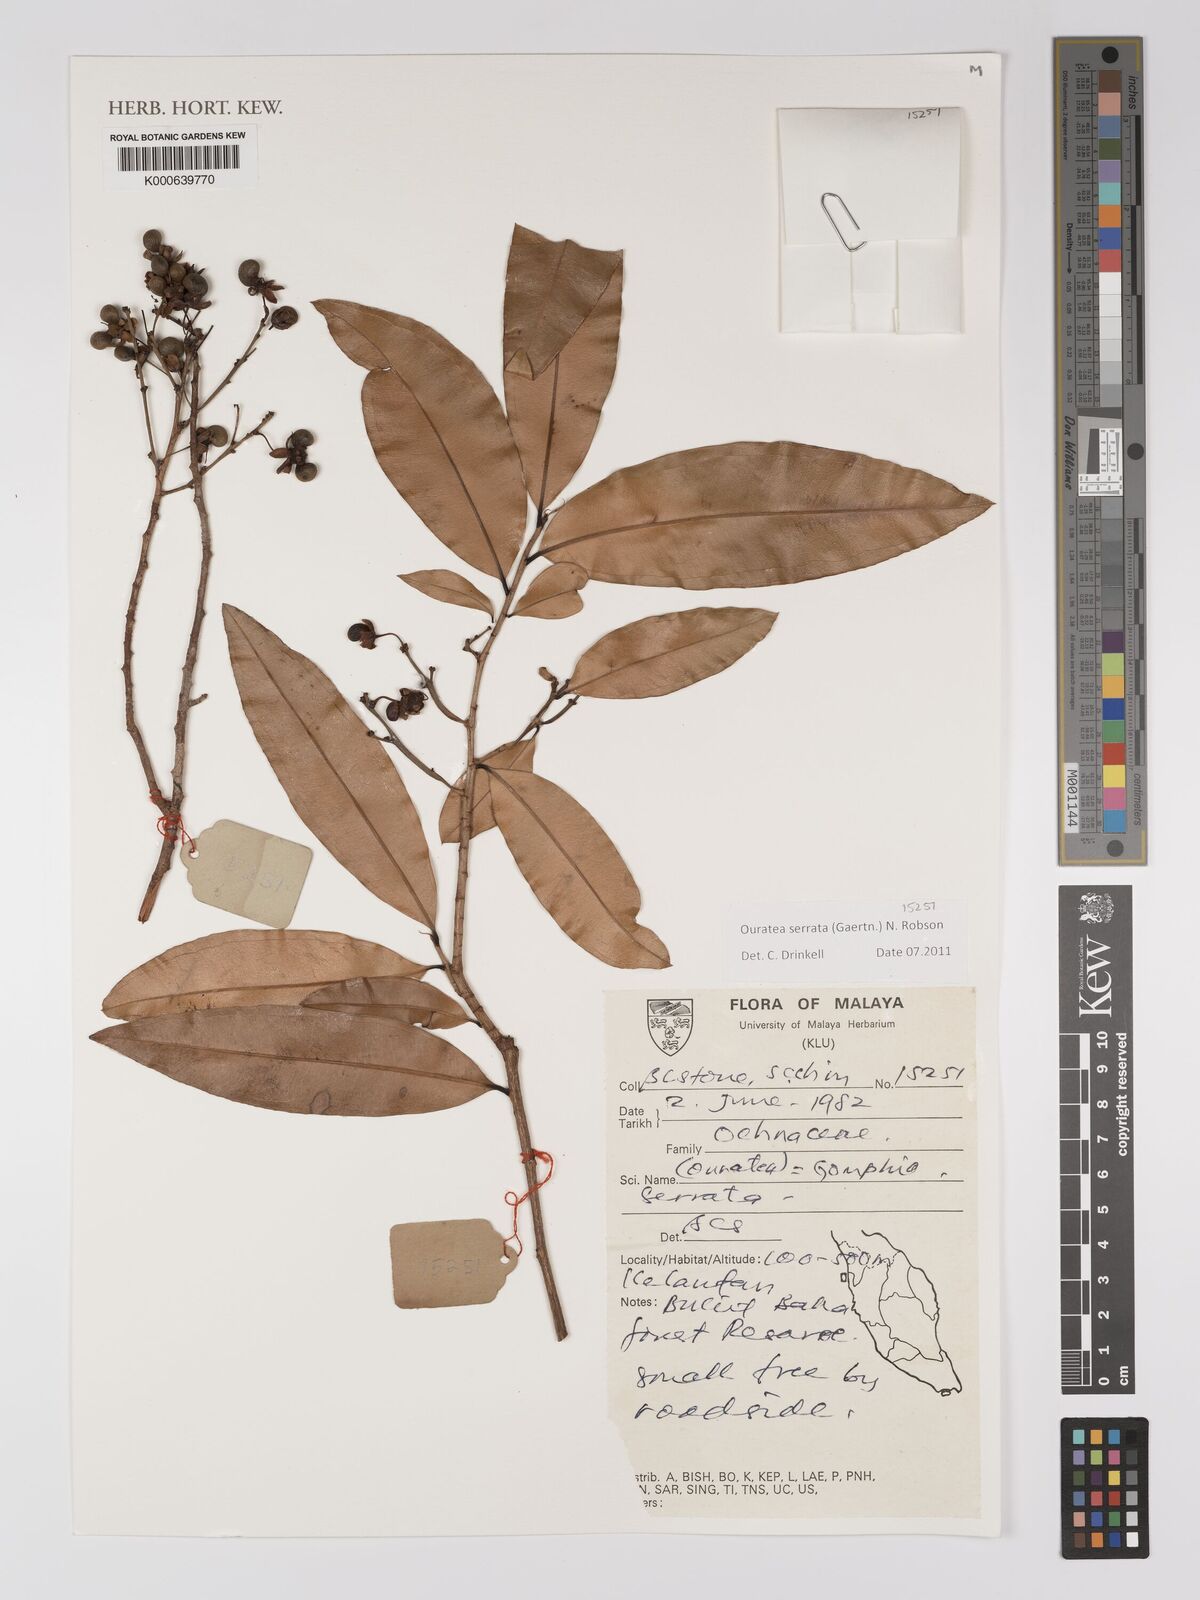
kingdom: Plantae
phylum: Tracheophyta
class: Magnoliopsida
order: Malpighiales
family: Ochnaceae
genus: Gomphia
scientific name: Gomphia serrata
